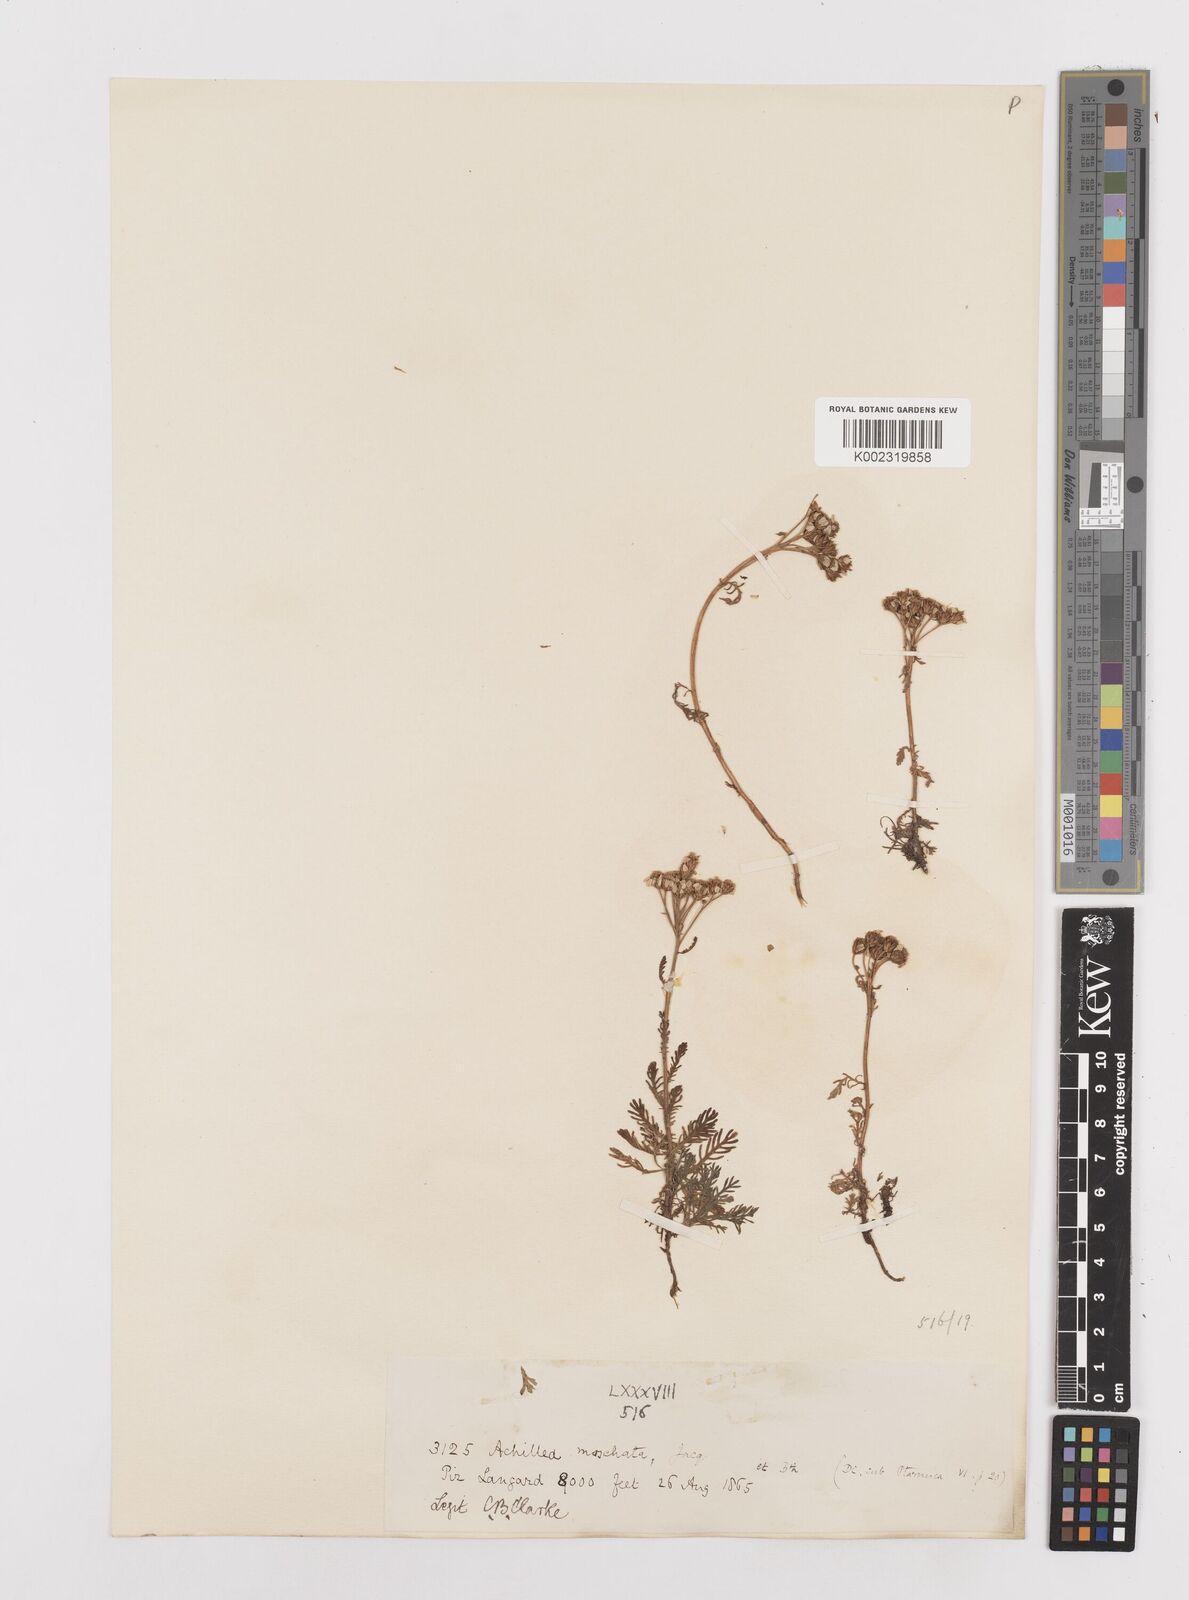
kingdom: Plantae
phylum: Tracheophyta
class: Magnoliopsida
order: Asterales
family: Asteraceae
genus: Achillea
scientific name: Achillea erba-rotta
